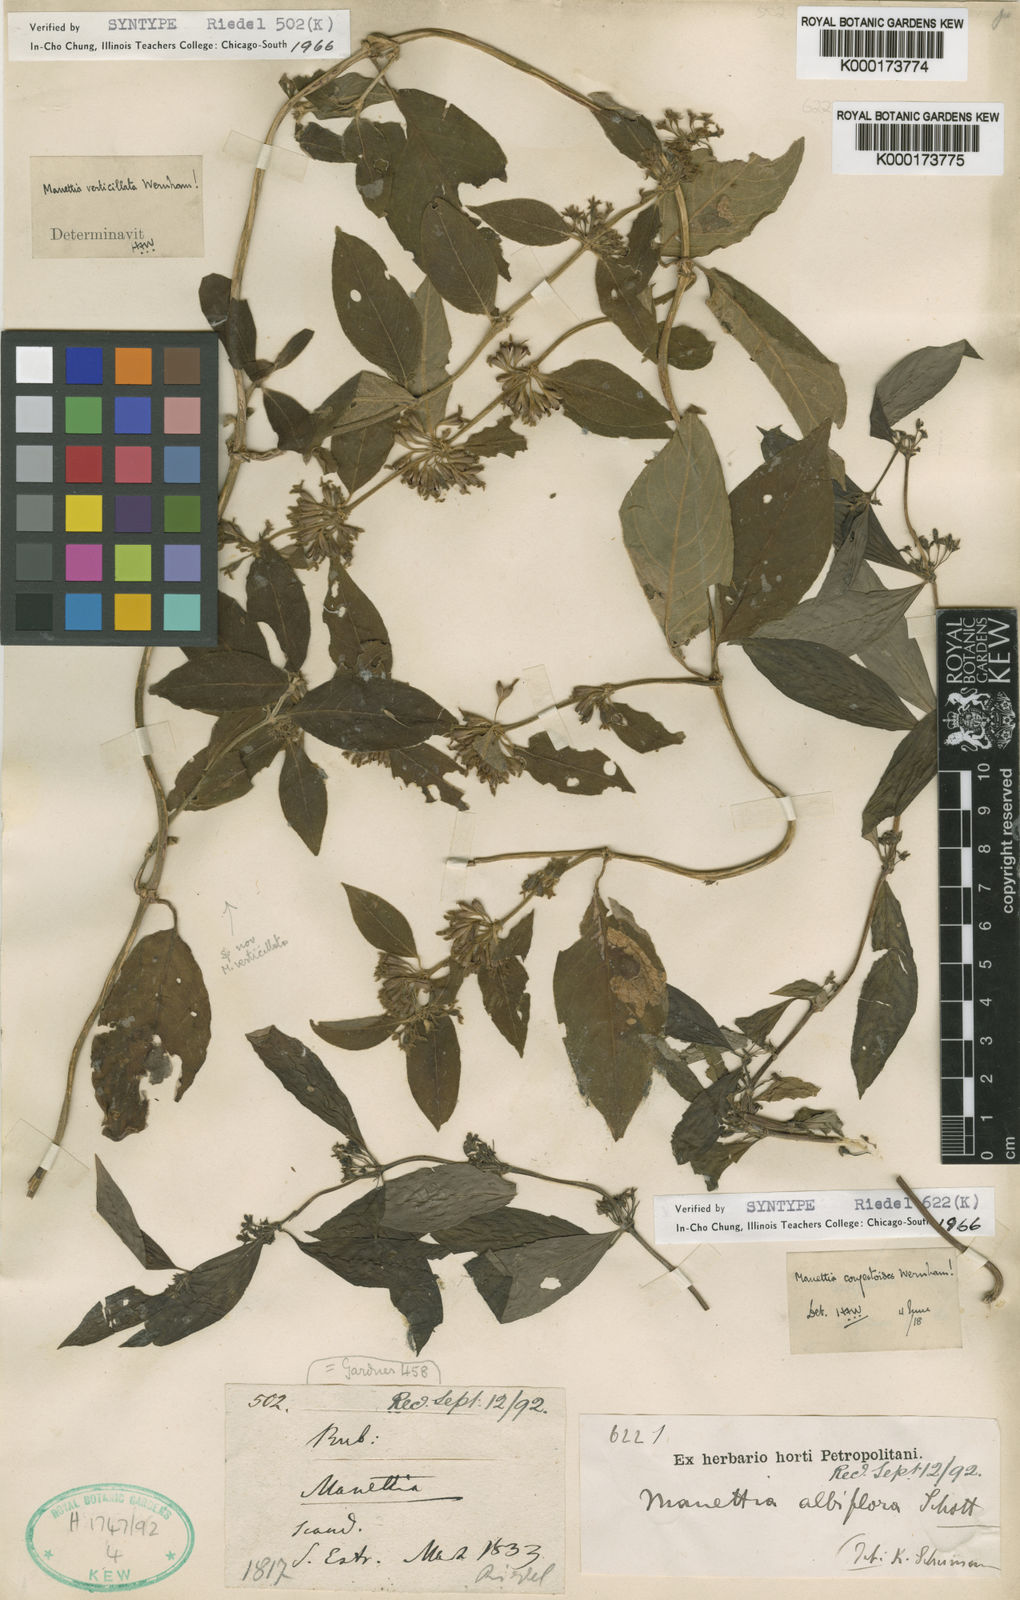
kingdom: Plantae
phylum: Tracheophyta
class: Magnoliopsida
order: Gentianales
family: Rubiaceae
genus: Manettia
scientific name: Manettia verticillata
